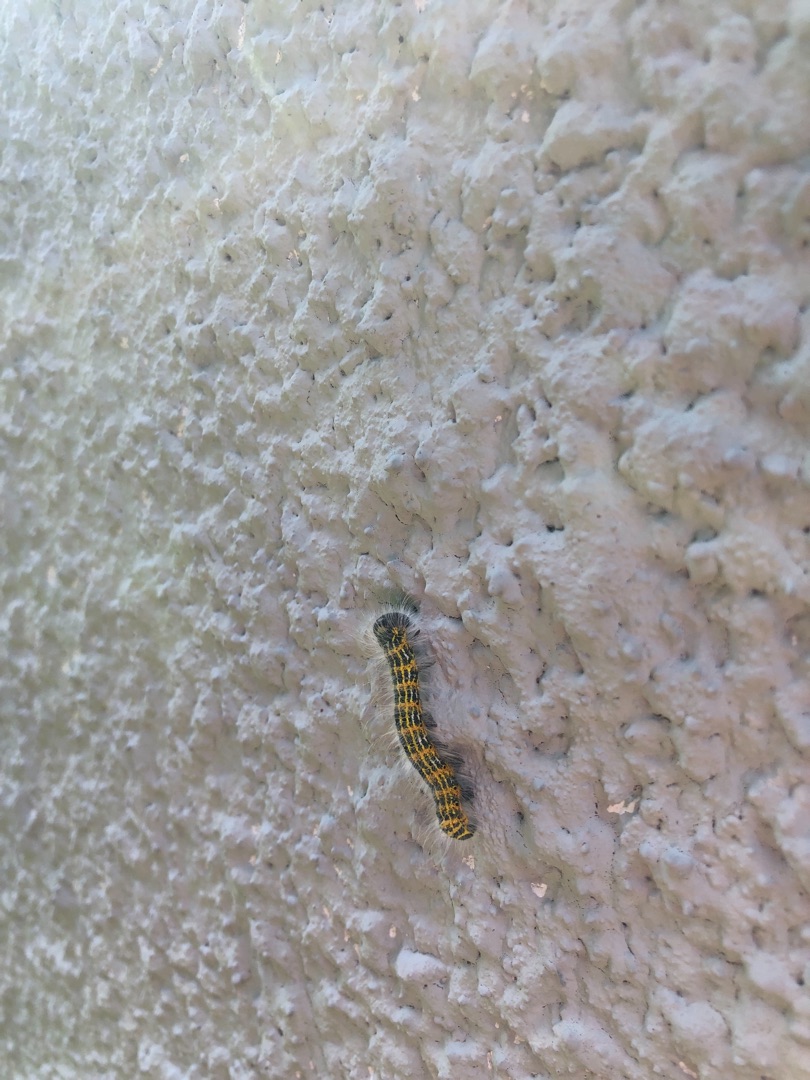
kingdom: Animalia
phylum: Arthropoda
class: Insecta
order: Lepidoptera
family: Notodontidae
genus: Phalera
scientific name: Phalera bucephala
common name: Måneplet
